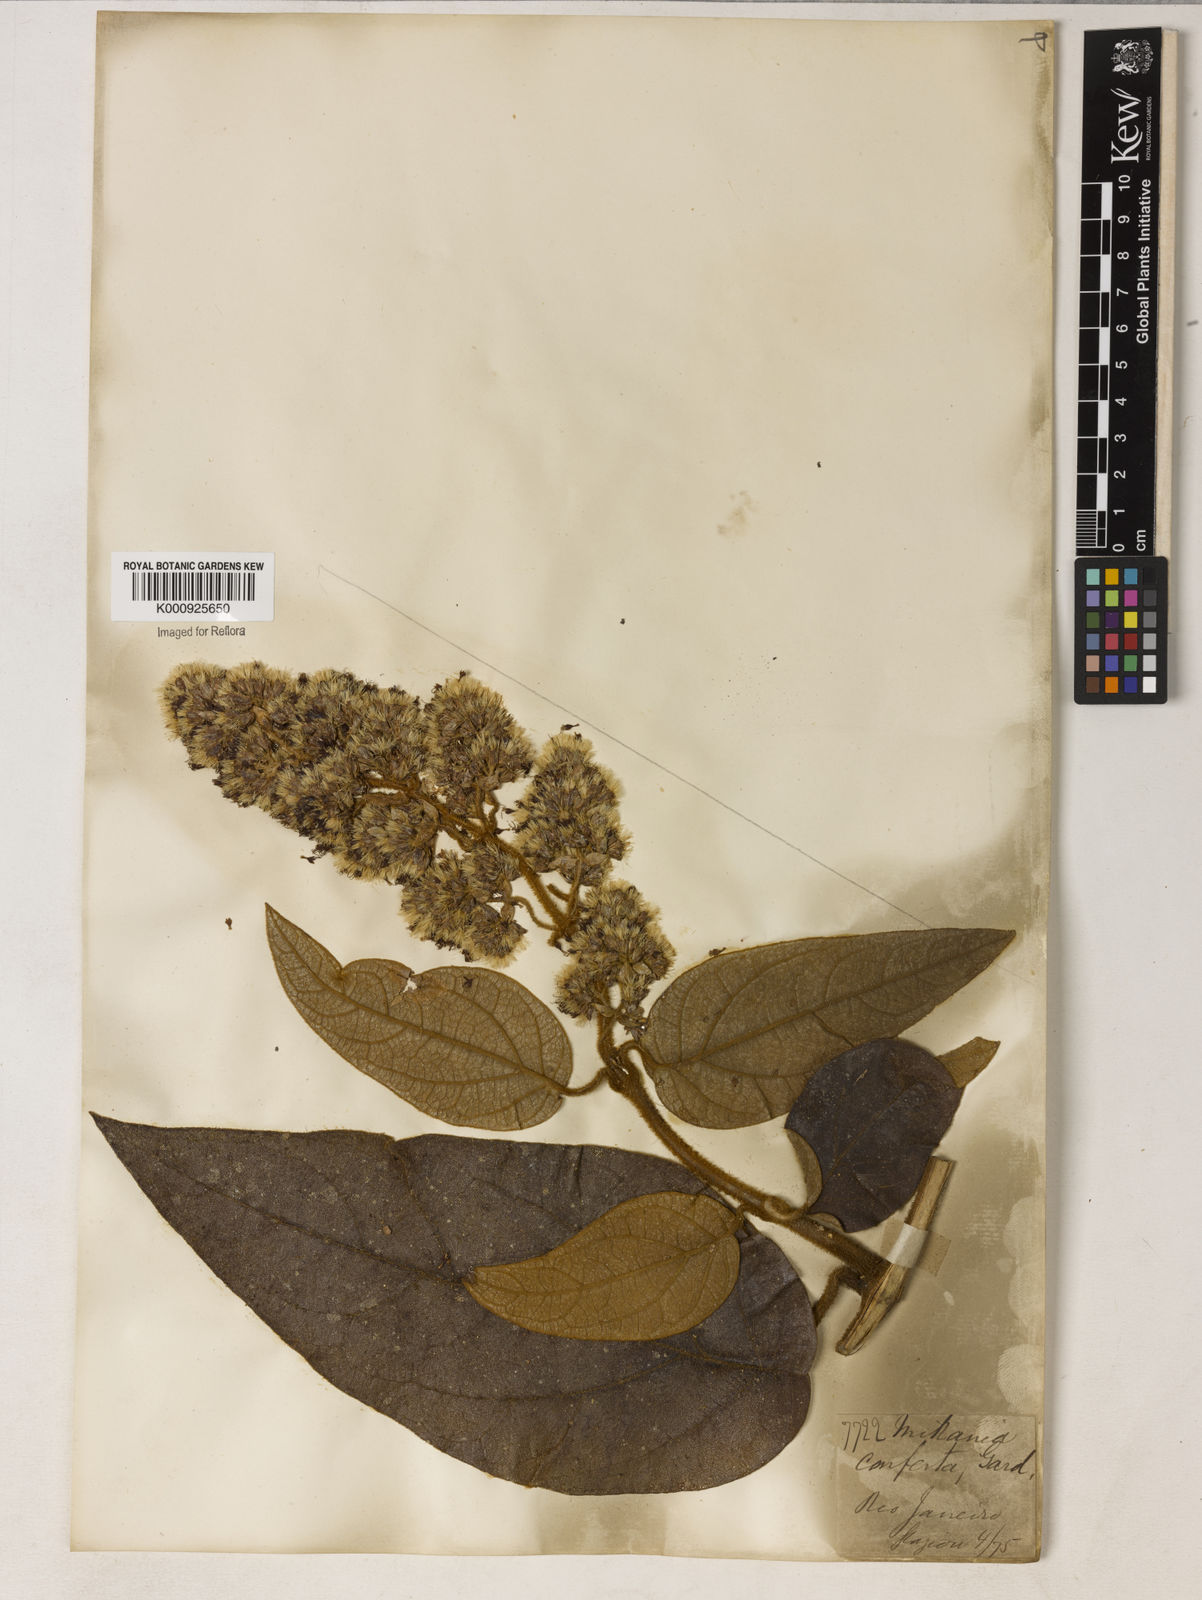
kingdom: Plantae
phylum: Tracheophyta
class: Magnoliopsida
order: Asterales
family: Asteraceae
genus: Mikania
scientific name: Mikania congesta
